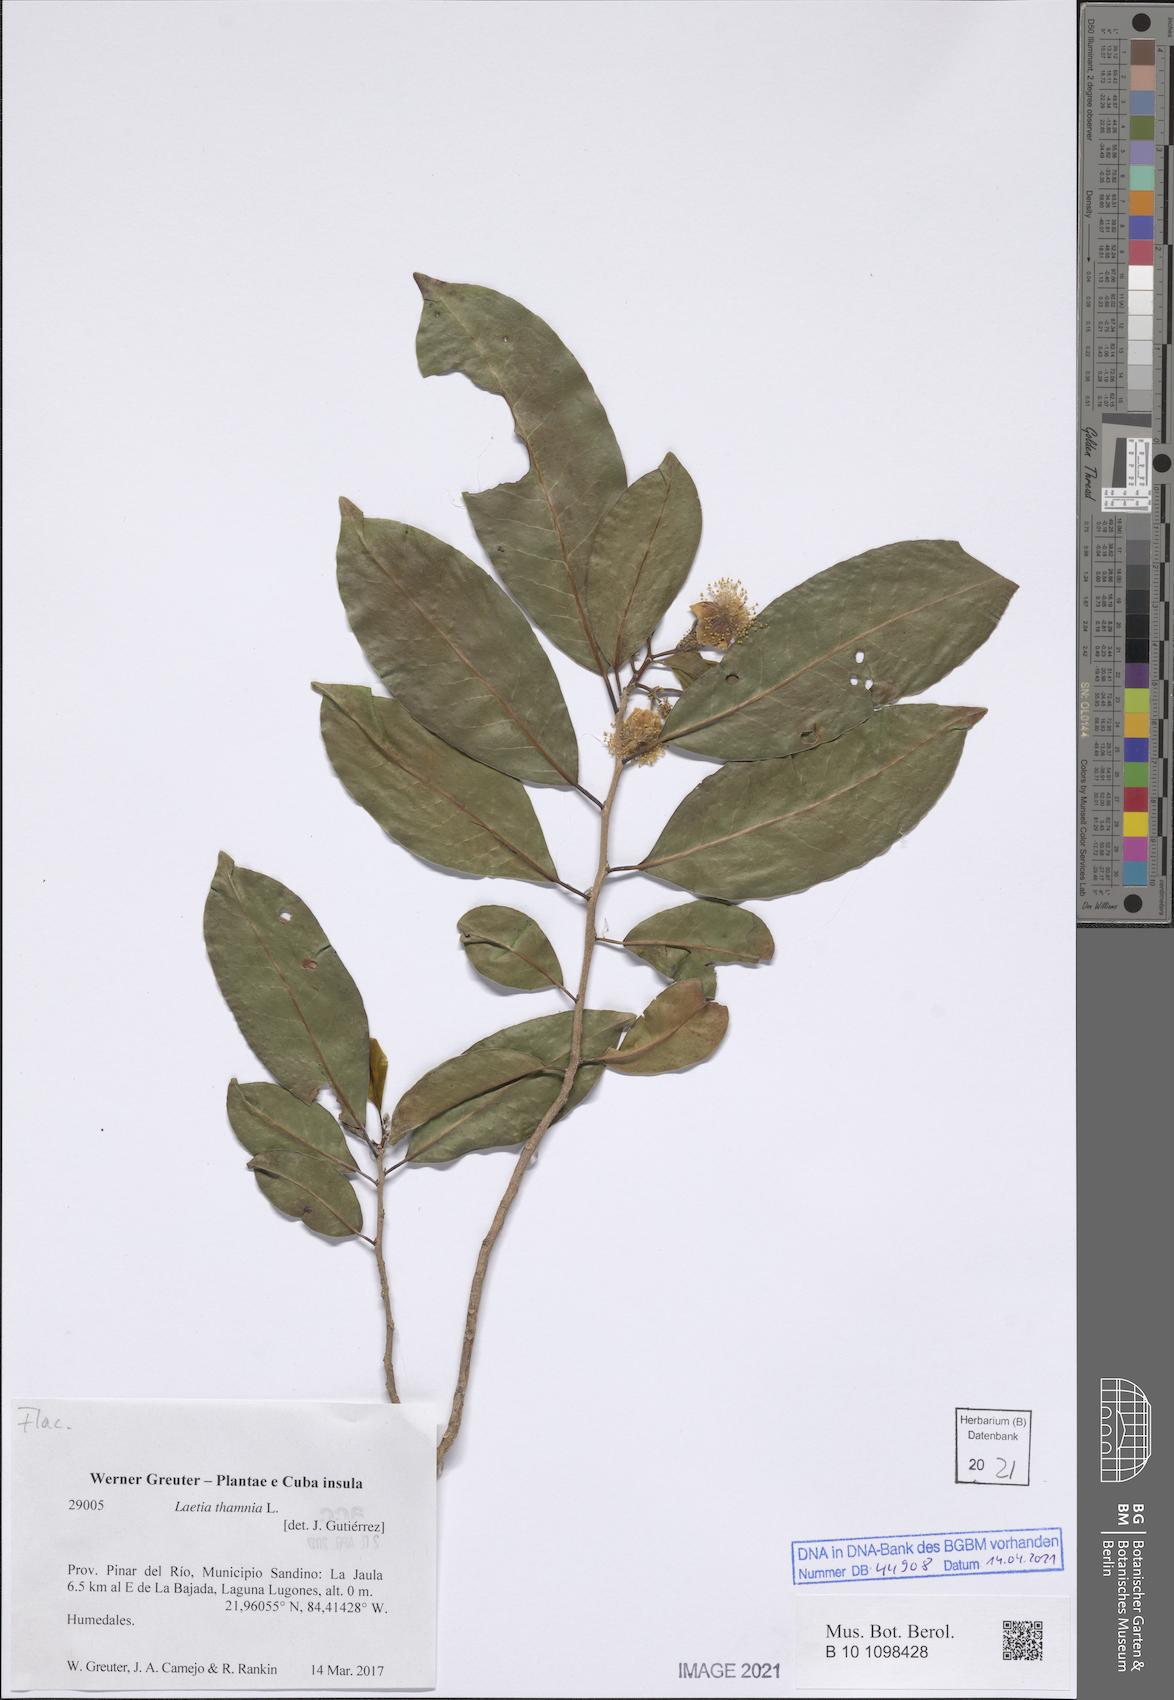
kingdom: Plantae
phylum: Tracheophyta
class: Magnoliopsida
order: Malpighiales
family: Salicaceae
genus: Casearia
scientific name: Casearia thamnia
